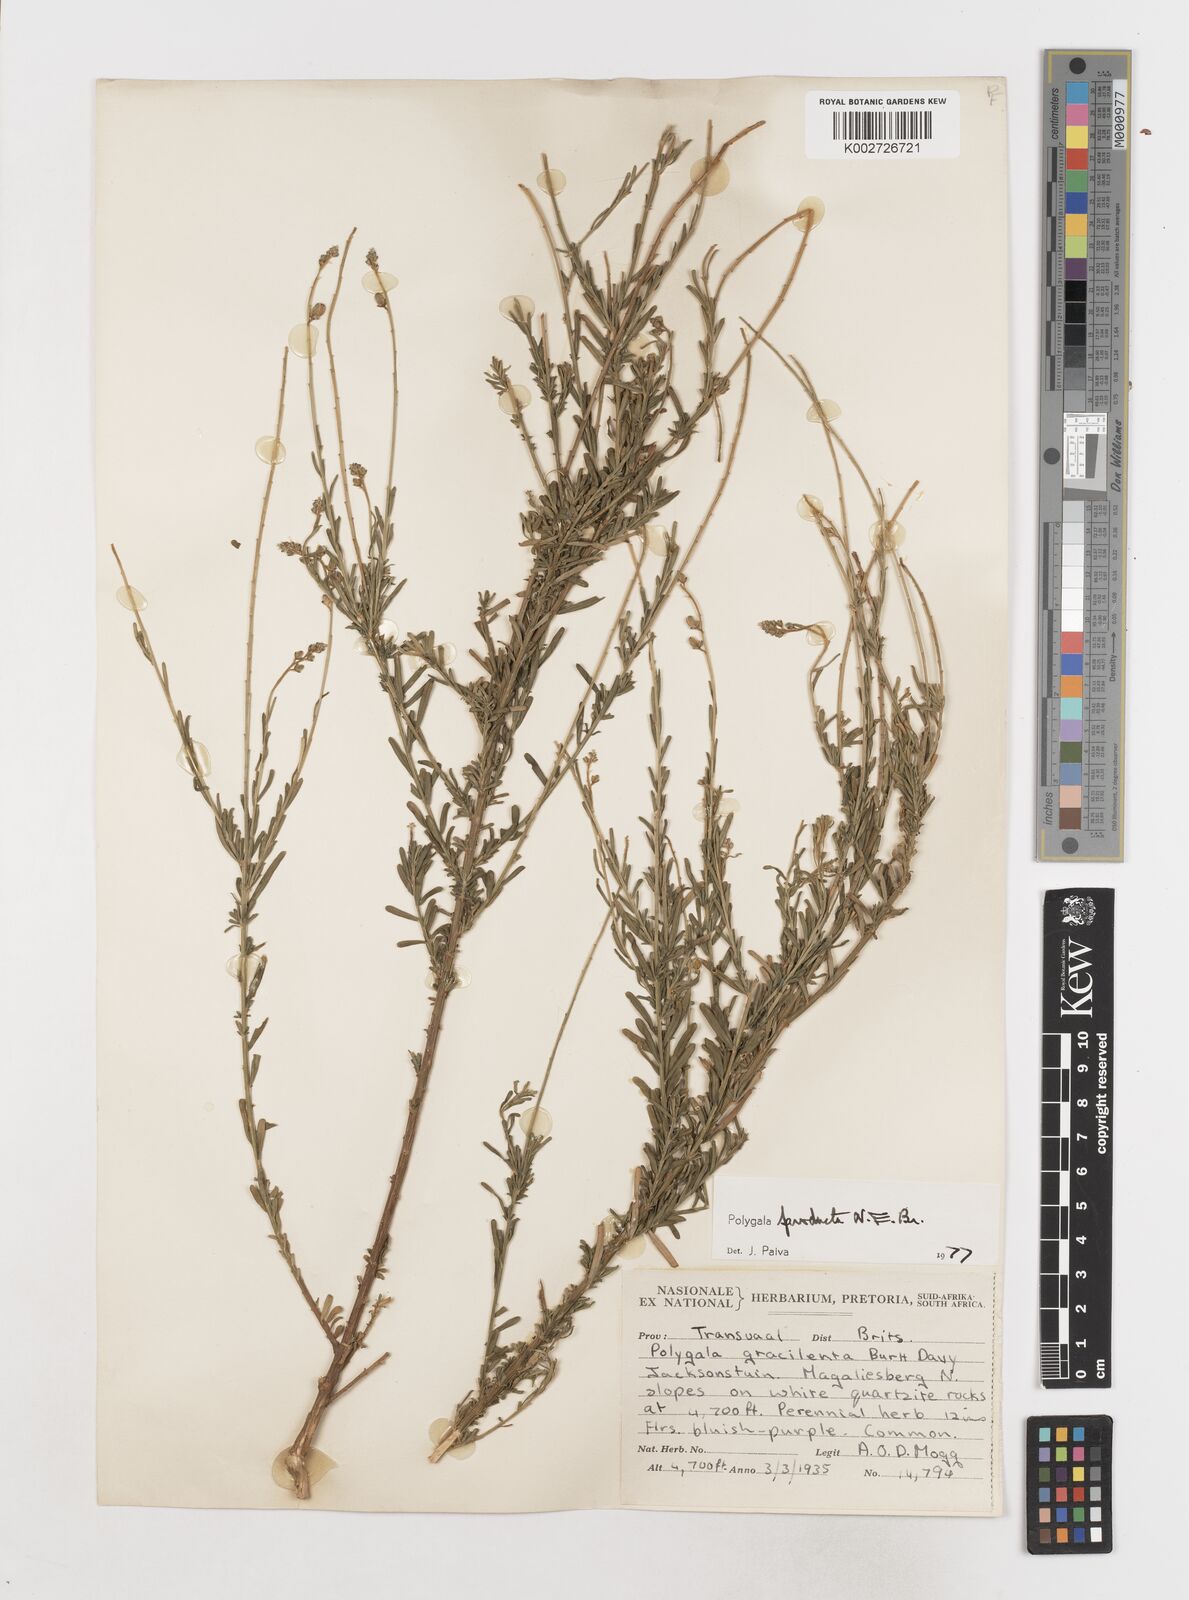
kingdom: Plantae
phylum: Tracheophyta
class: Magnoliopsida
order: Fabales
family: Polygalaceae
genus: Polygala
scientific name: Polygala producta
